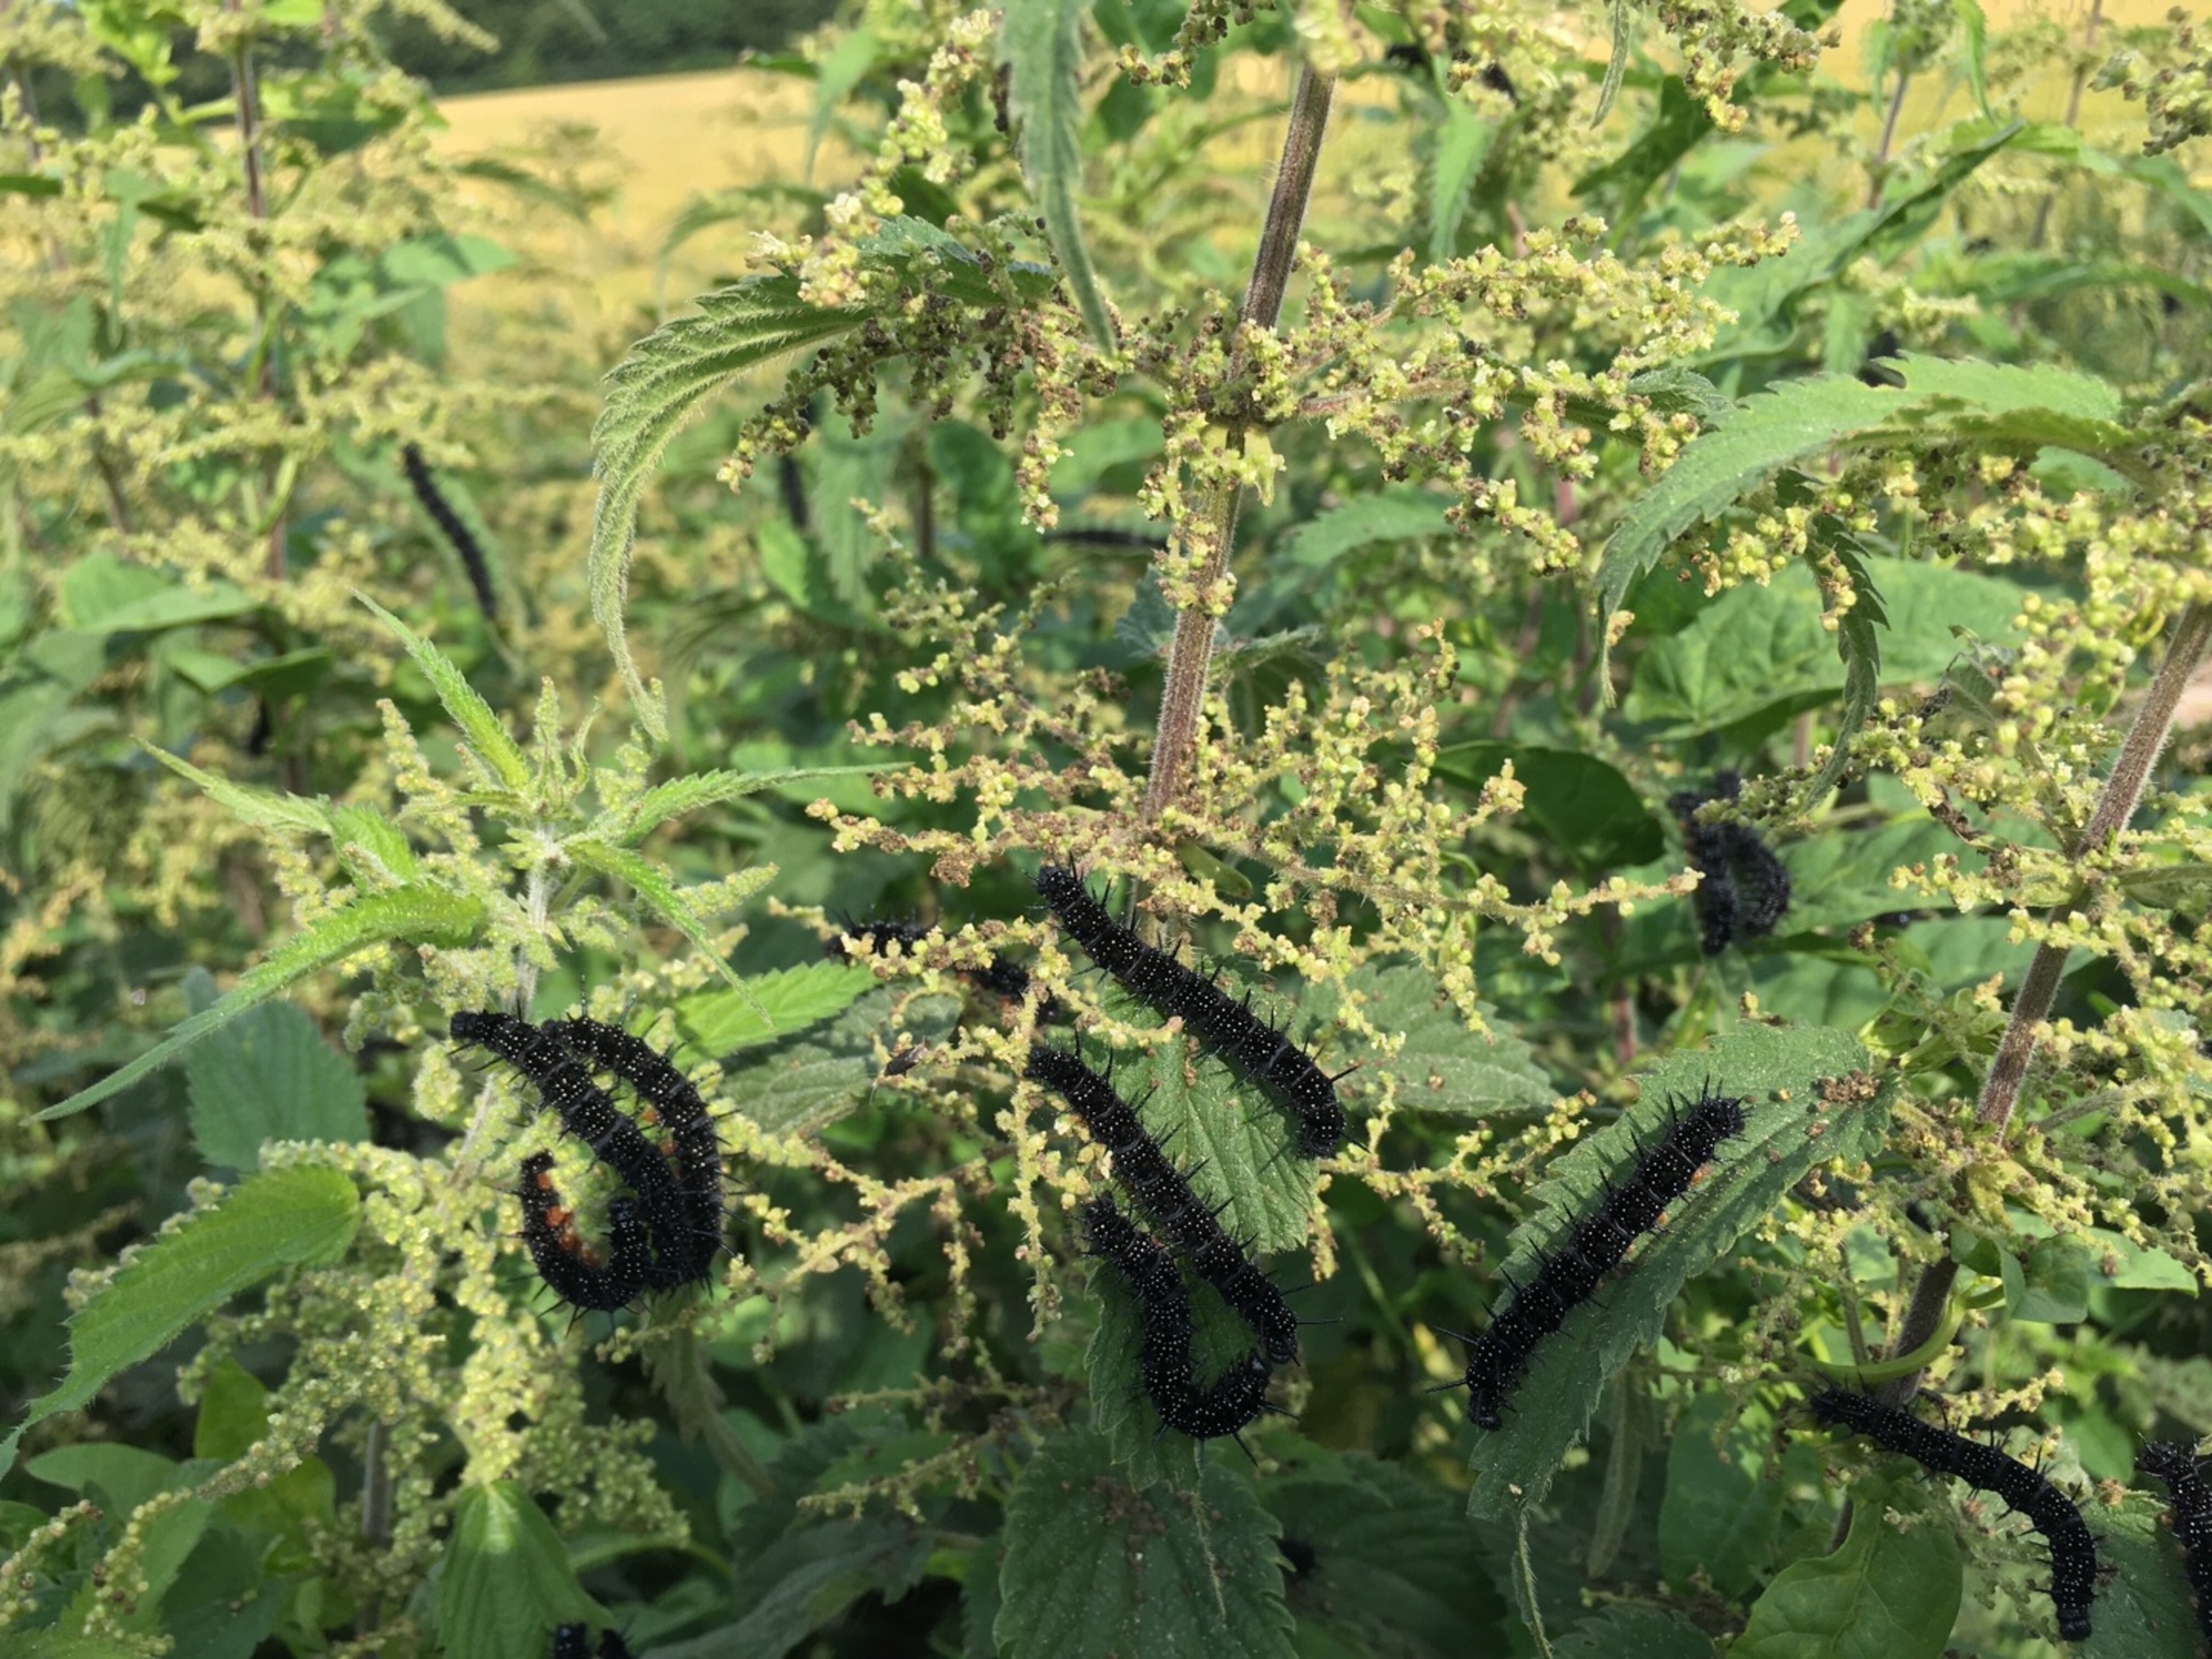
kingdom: Animalia
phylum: Arthropoda
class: Insecta
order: Lepidoptera
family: Nymphalidae
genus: Aglais
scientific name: Aglais io
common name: Dagpåfugleøje
